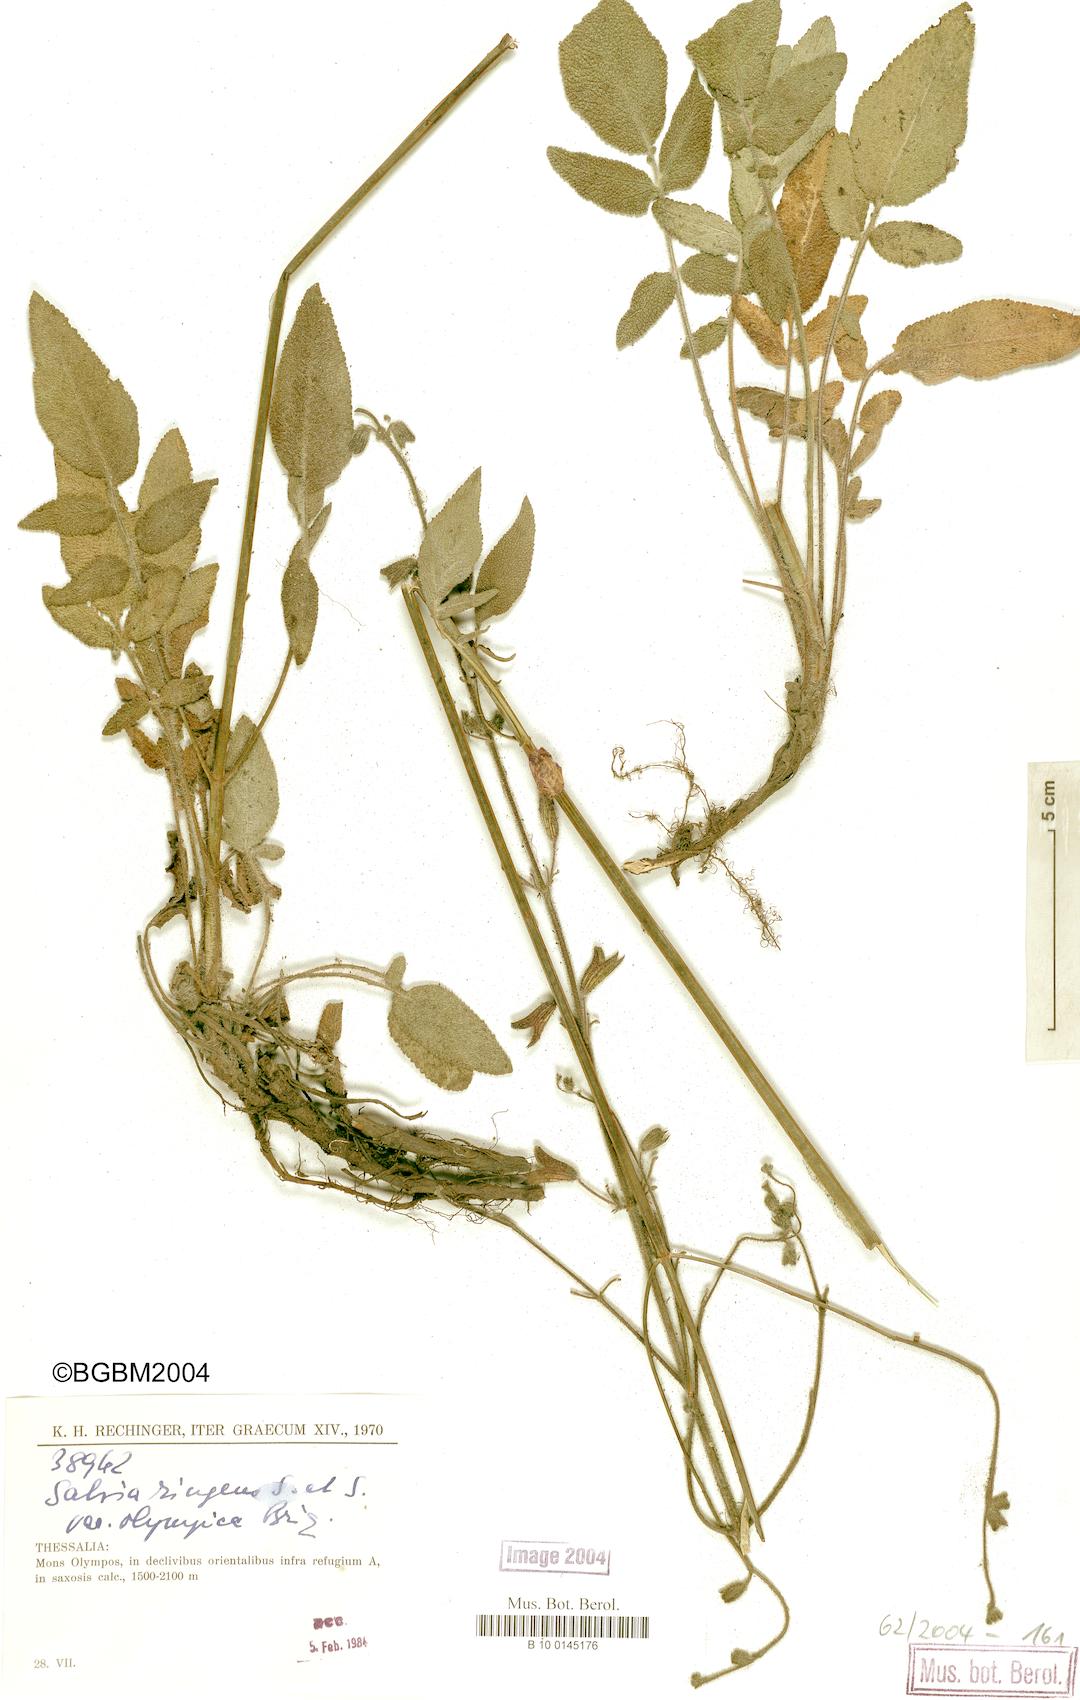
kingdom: Plantae
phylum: Tracheophyta
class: Magnoliopsida
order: Lamiales
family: Lamiaceae
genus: Salvia
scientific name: Salvia ringens
